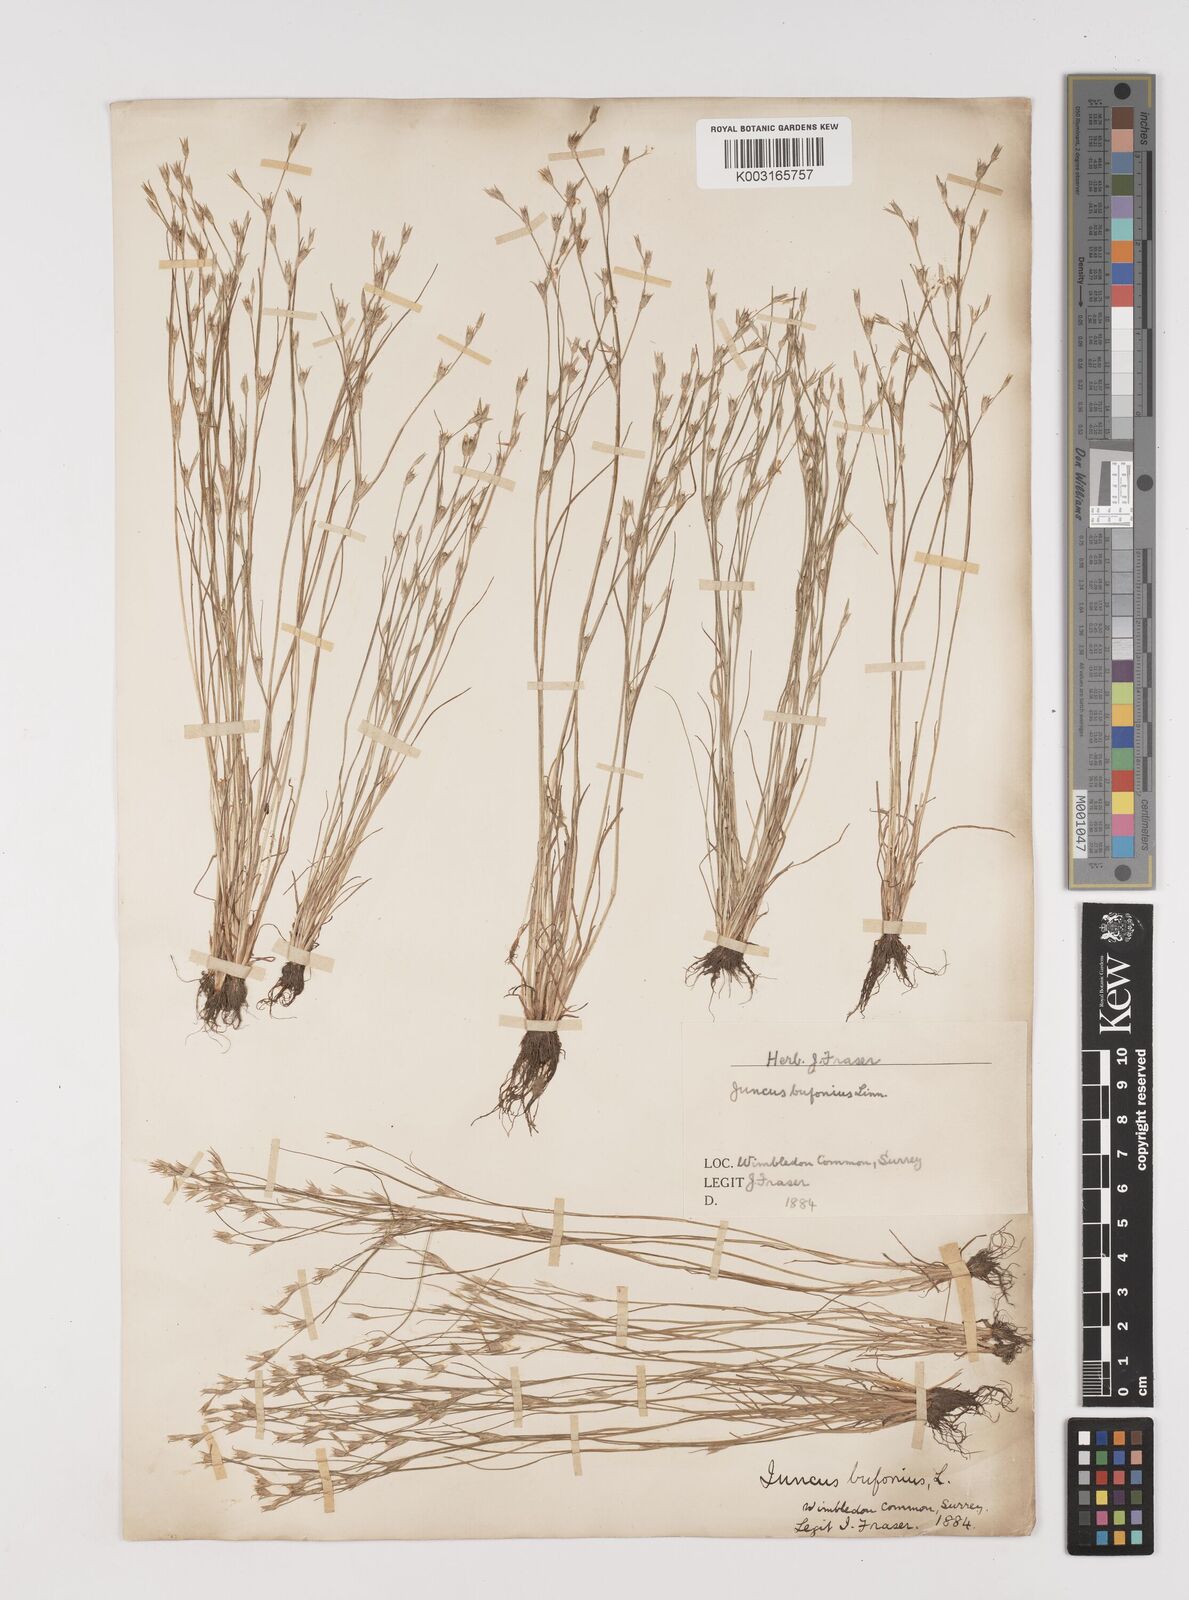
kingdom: Plantae
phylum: Tracheophyta
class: Liliopsida
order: Poales
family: Juncaceae
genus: Juncus
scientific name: Juncus bufonius
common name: Toad rush
